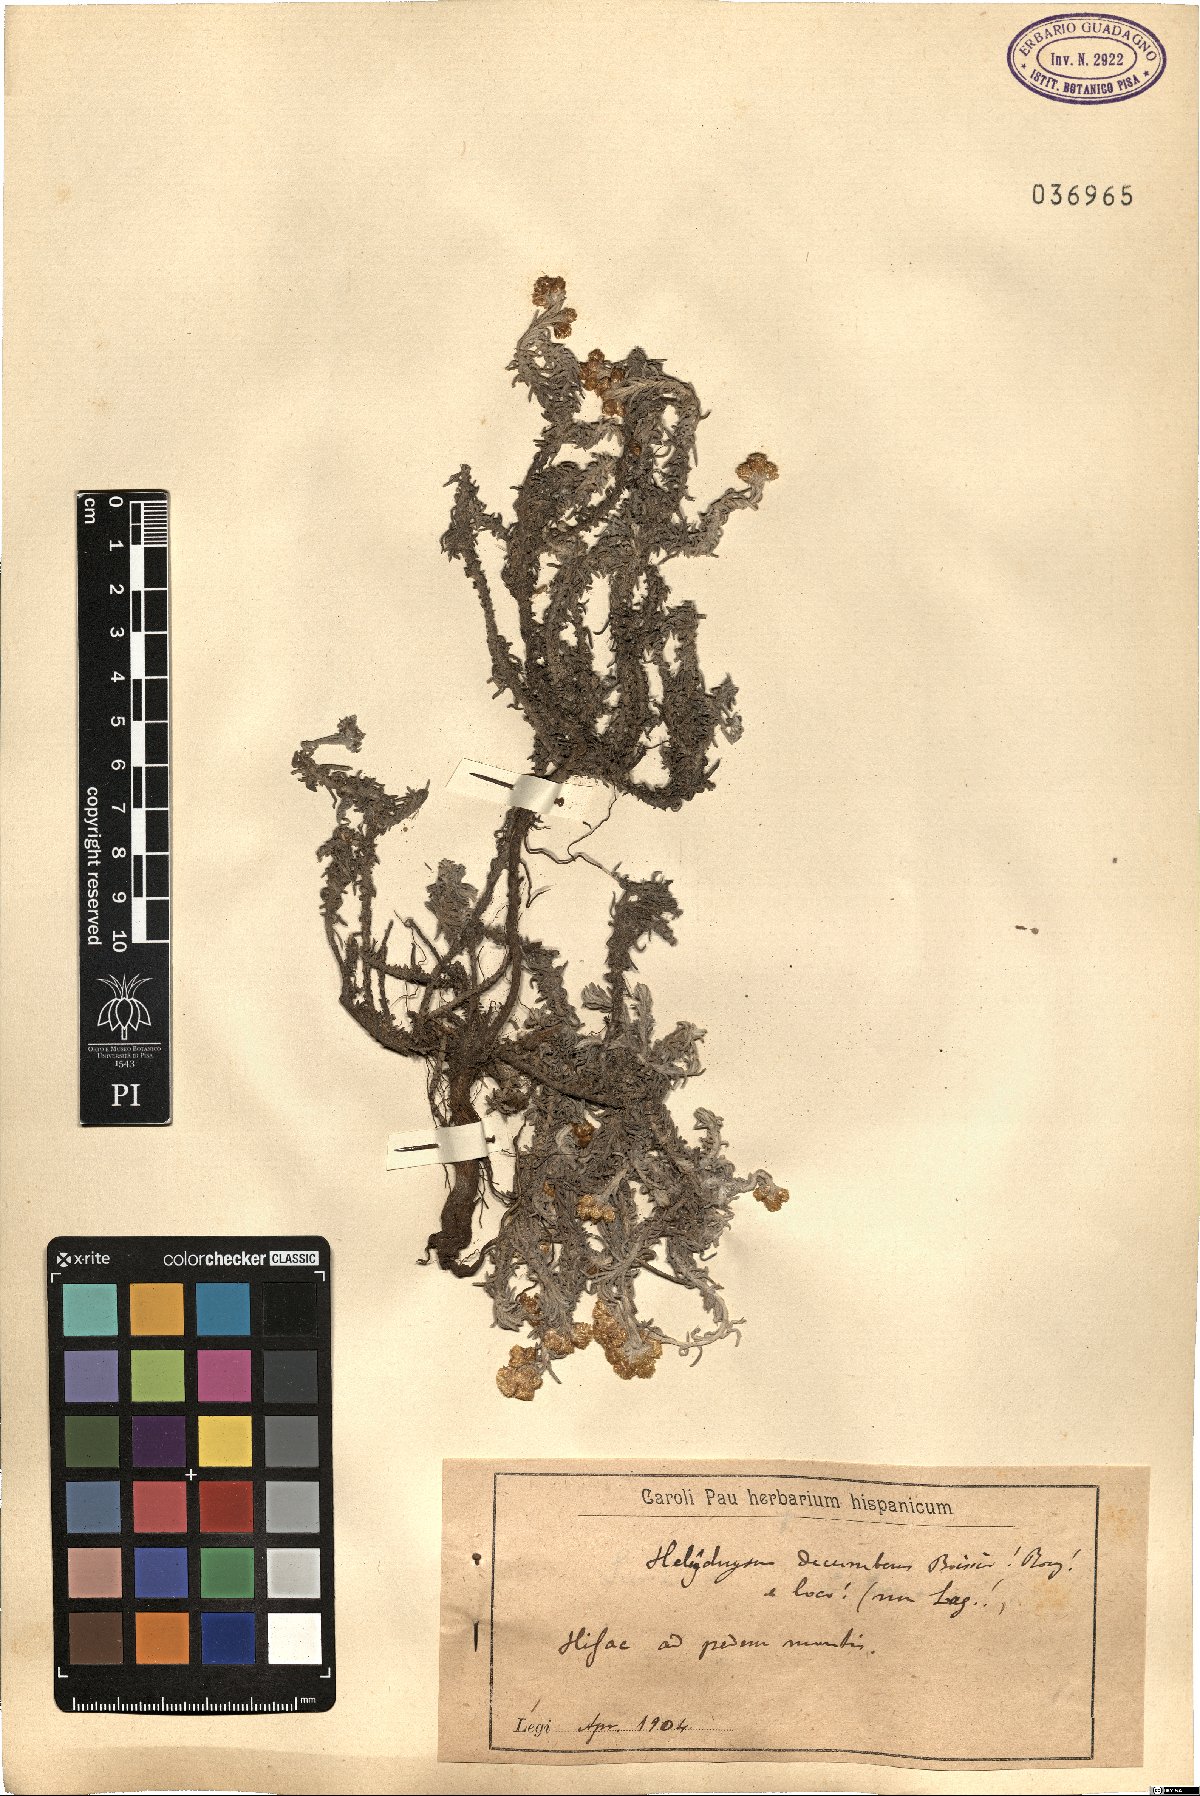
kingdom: Plantae
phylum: Tracheophyta
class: Magnoliopsida
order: Asterales
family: Asteraceae
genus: Helichrysum
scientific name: Helichrysum stoechas
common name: Goldilocks
